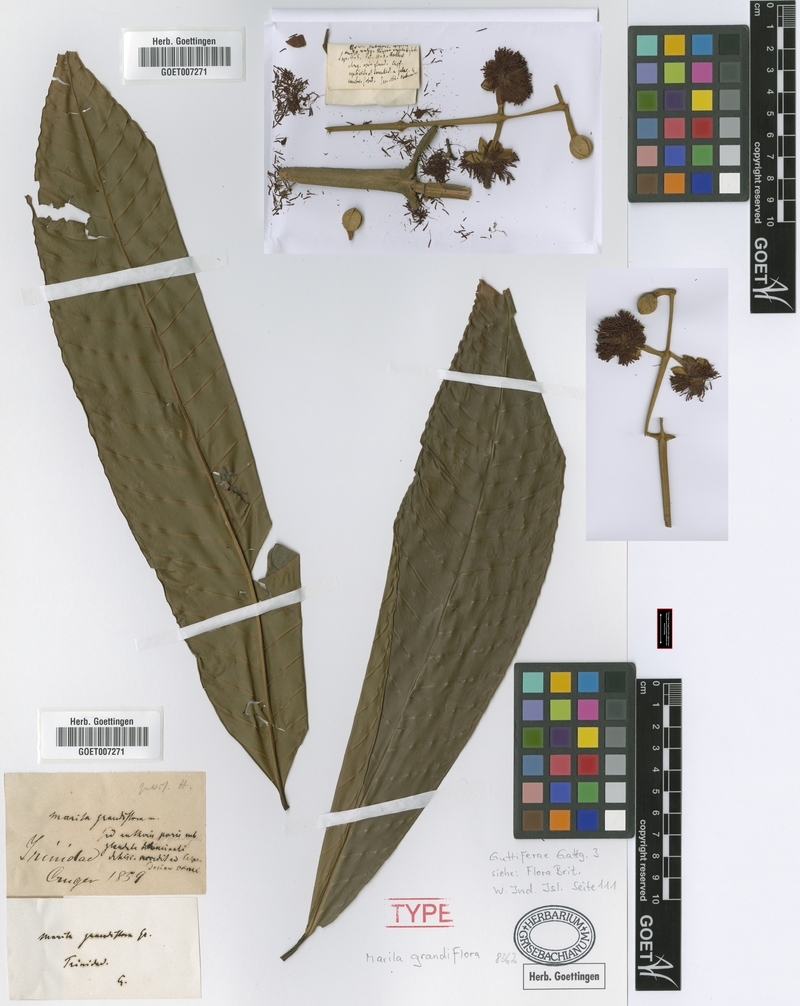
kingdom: Plantae
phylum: Tracheophyta
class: Magnoliopsida
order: Malpighiales
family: Calophyllaceae
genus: Marila
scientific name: Marila grandiflora
